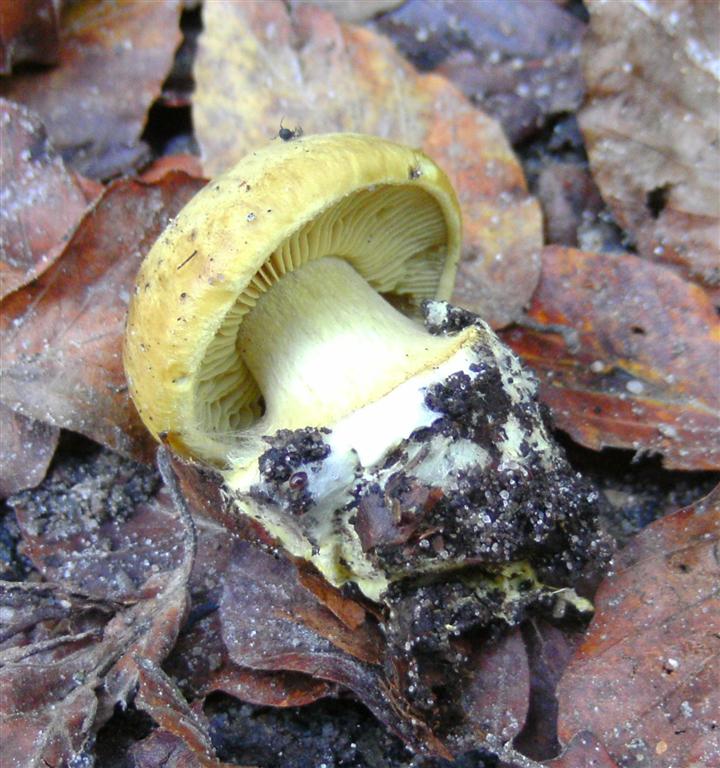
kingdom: Fungi
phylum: Basidiomycota
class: Agaricomycetes
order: Agaricales
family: Cortinariaceae
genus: Calonarius
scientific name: Calonarius citrinus
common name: citrongul slørhat
